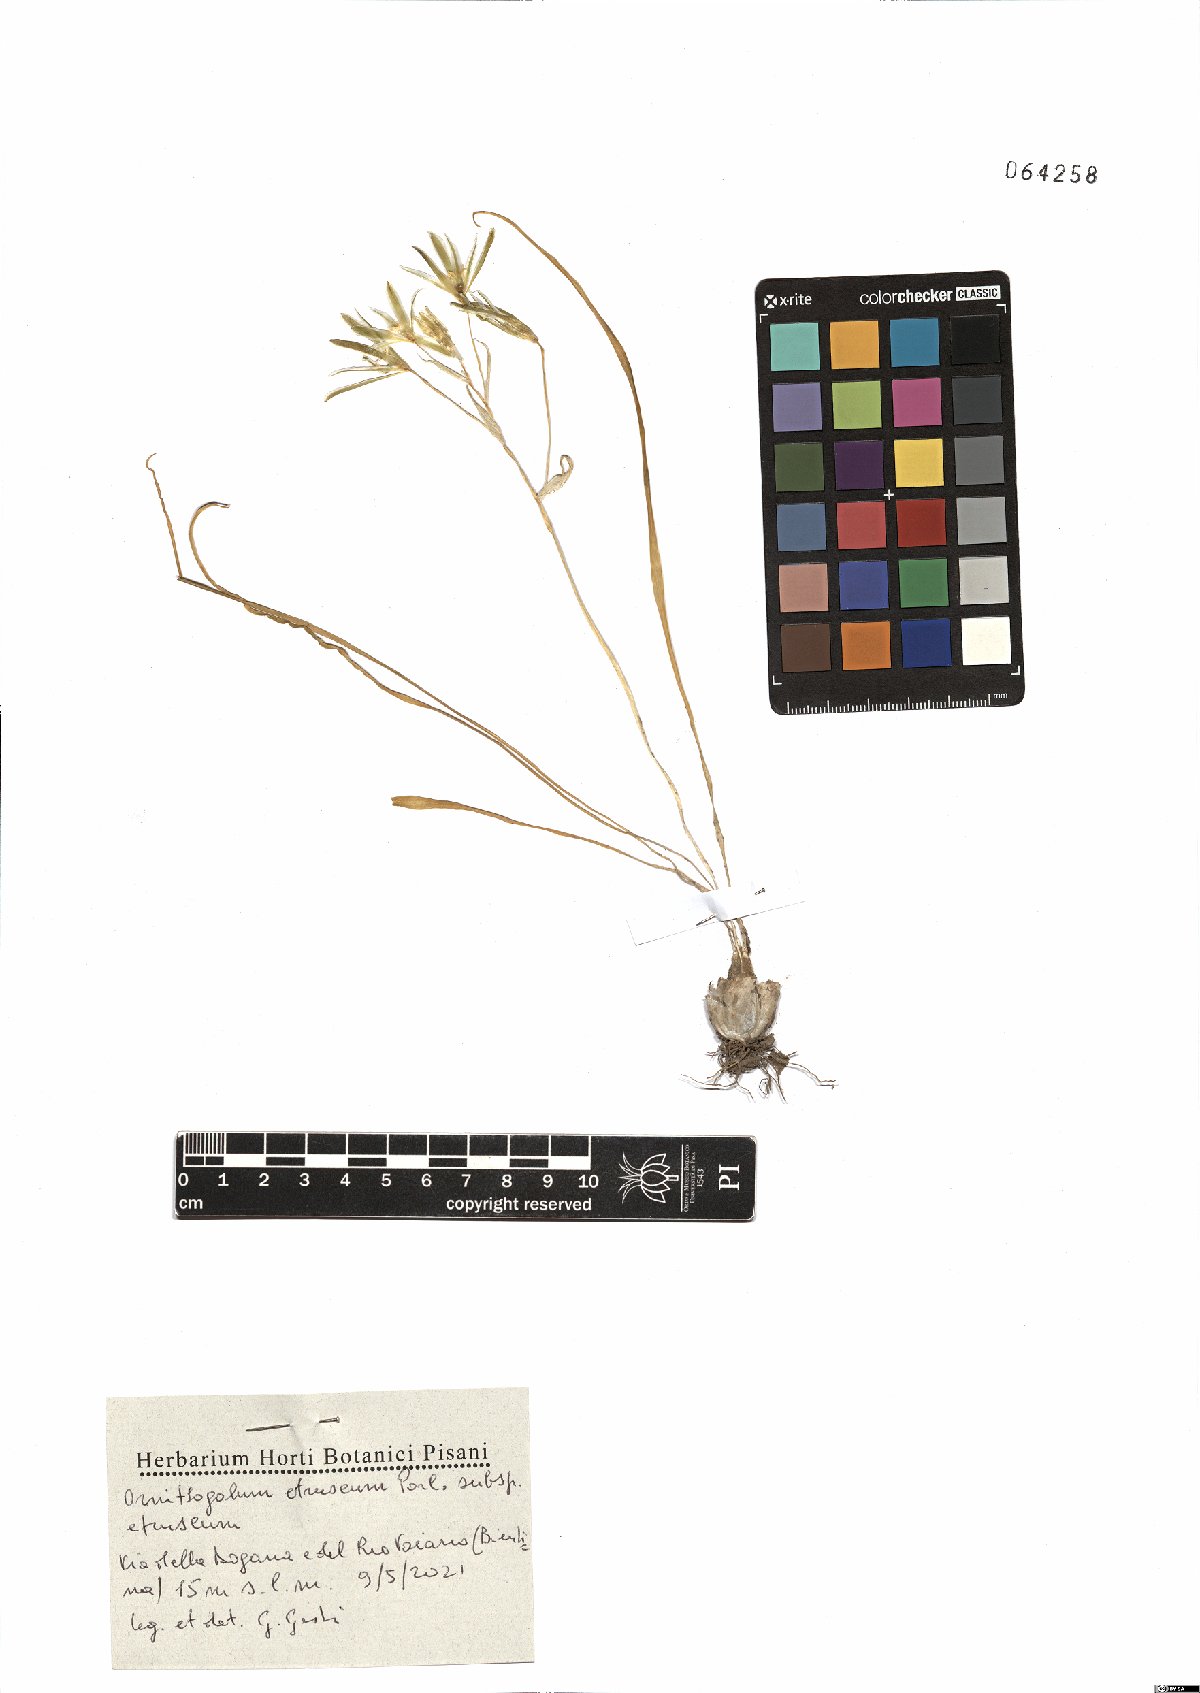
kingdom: Plantae
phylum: Tracheophyta
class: Liliopsida
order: Asparagales
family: Asparagaceae
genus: Ornithogalum
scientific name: Ornithogalum orthophyllum
